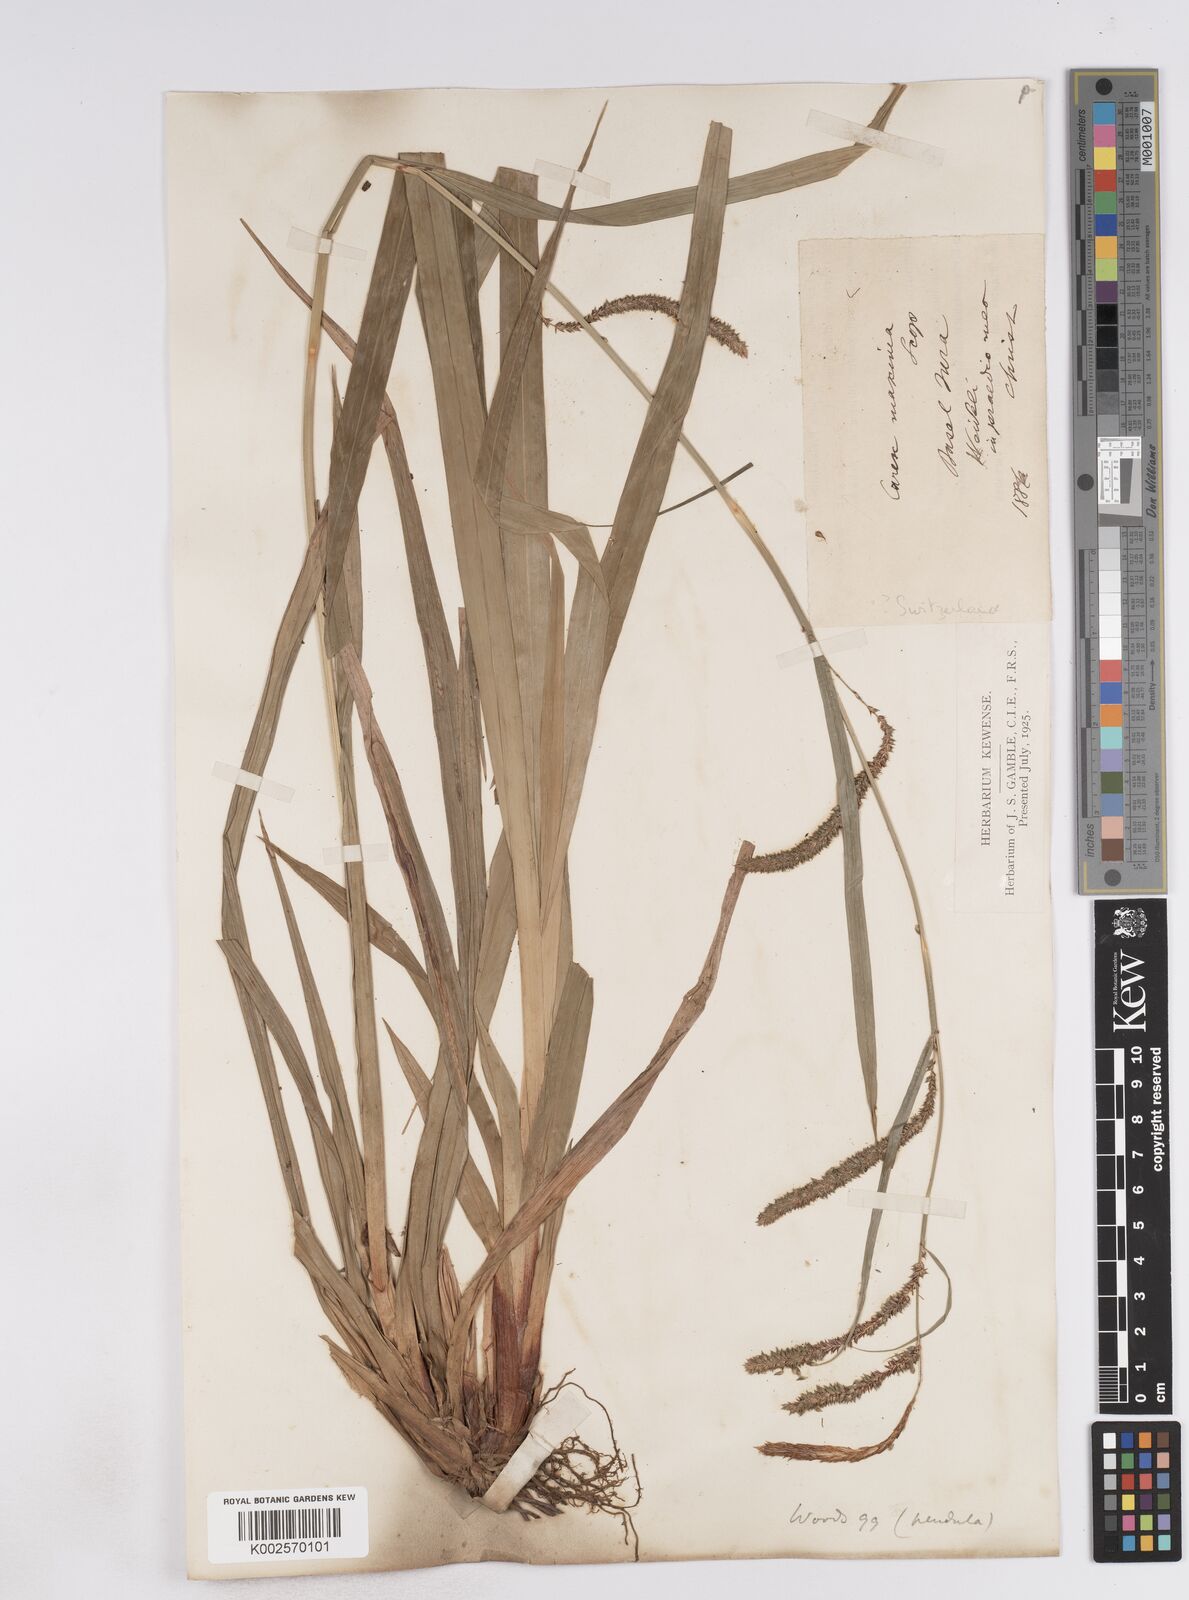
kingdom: Plantae
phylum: Tracheophyta
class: Liliopsida
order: Poales
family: Cyperaceae
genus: Carex
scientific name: Carex pendula
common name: Pendulous sedge
